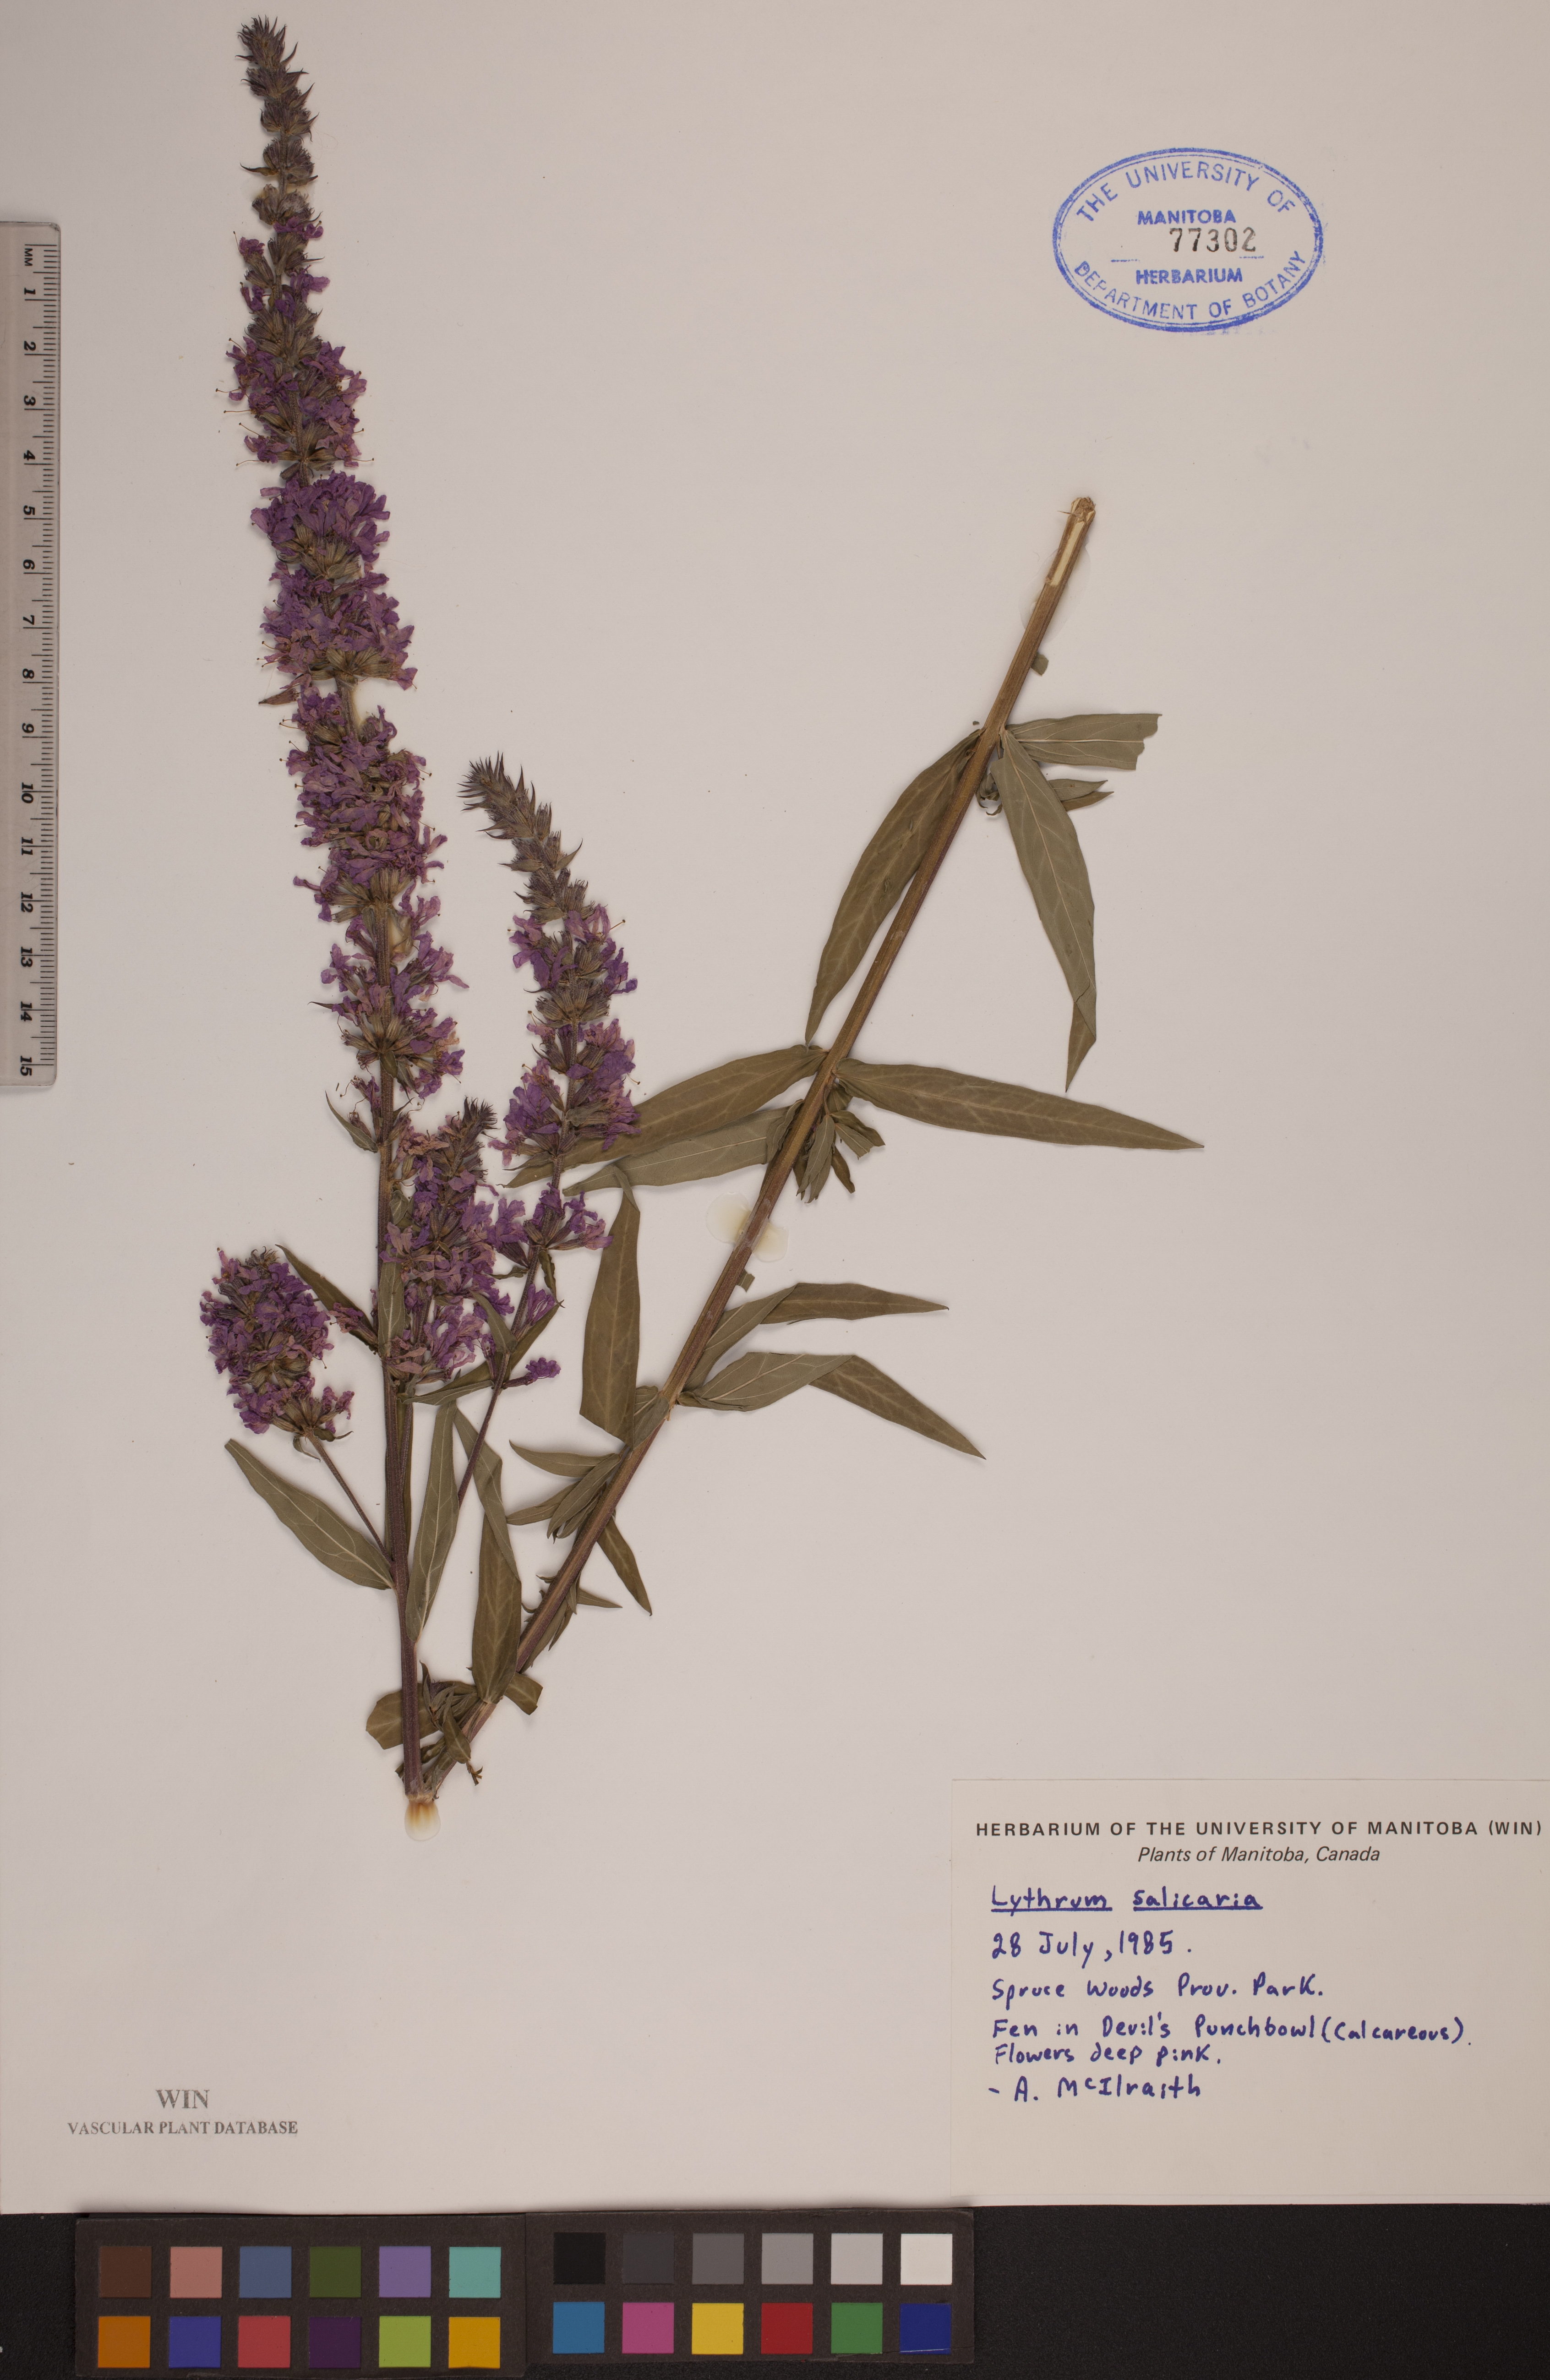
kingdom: Plantae
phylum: Tracheophyta
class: Magnoliopsida
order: Myrtales
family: Lythraceae
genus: Lythrum
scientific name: Lythrum salicaria
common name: Purple loosestrife
